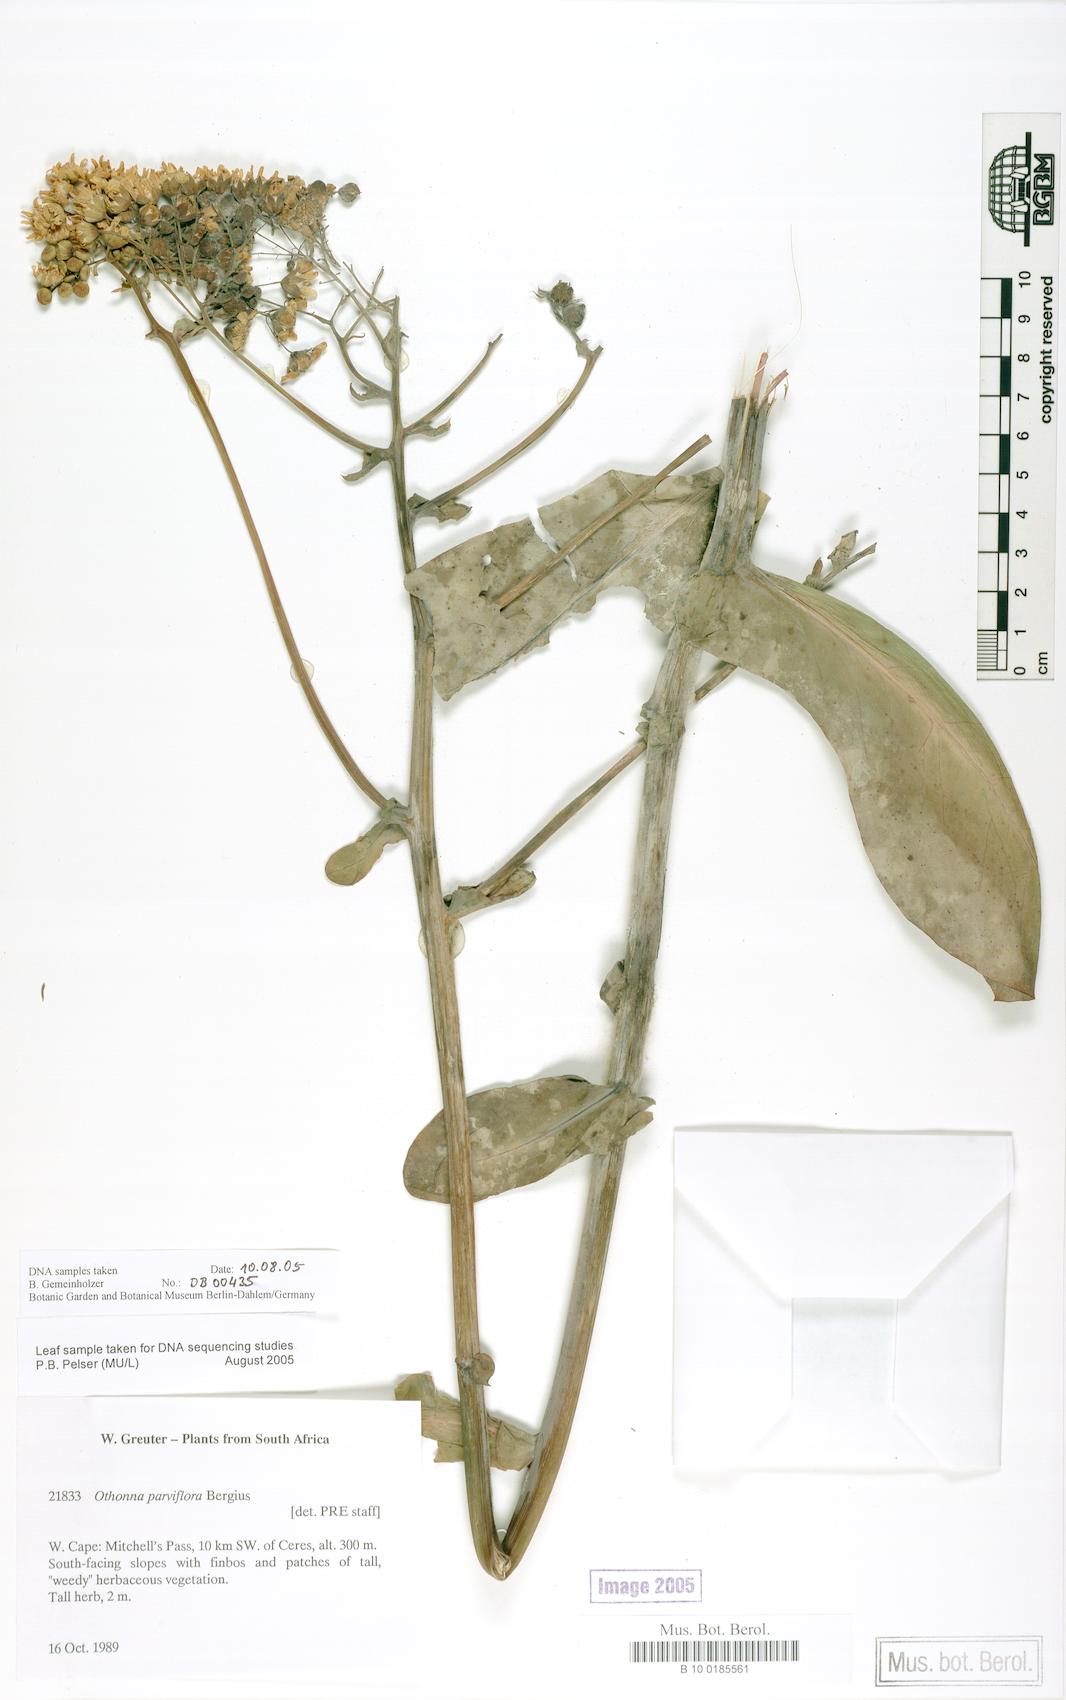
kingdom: Plantae
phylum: Tracheophyta
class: Magnoliopsida
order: Asterales
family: Asteraceae
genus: Othonna
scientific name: Othonna parviflora
